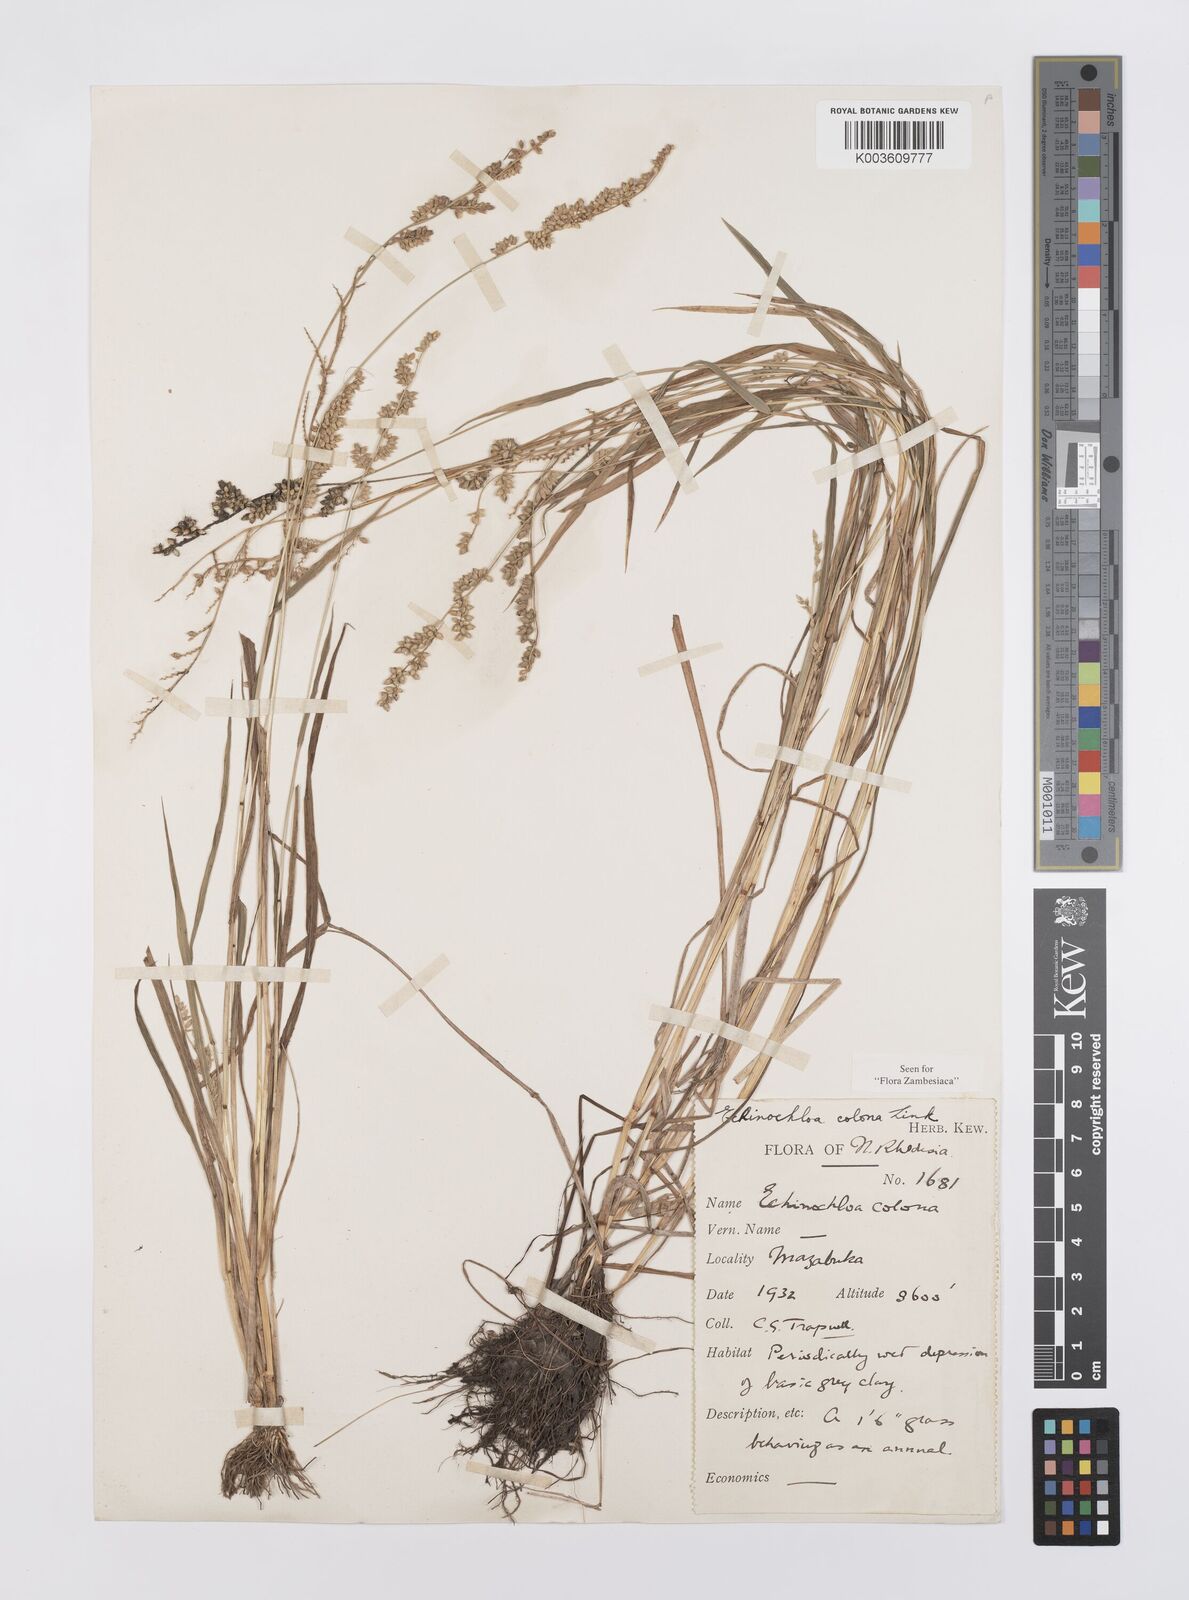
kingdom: Plantae
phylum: Tracheophyta
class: Liliopsida
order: Poales
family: Poaceae
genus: Echinochloa
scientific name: Echinochloa colonum
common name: Jungle rice
